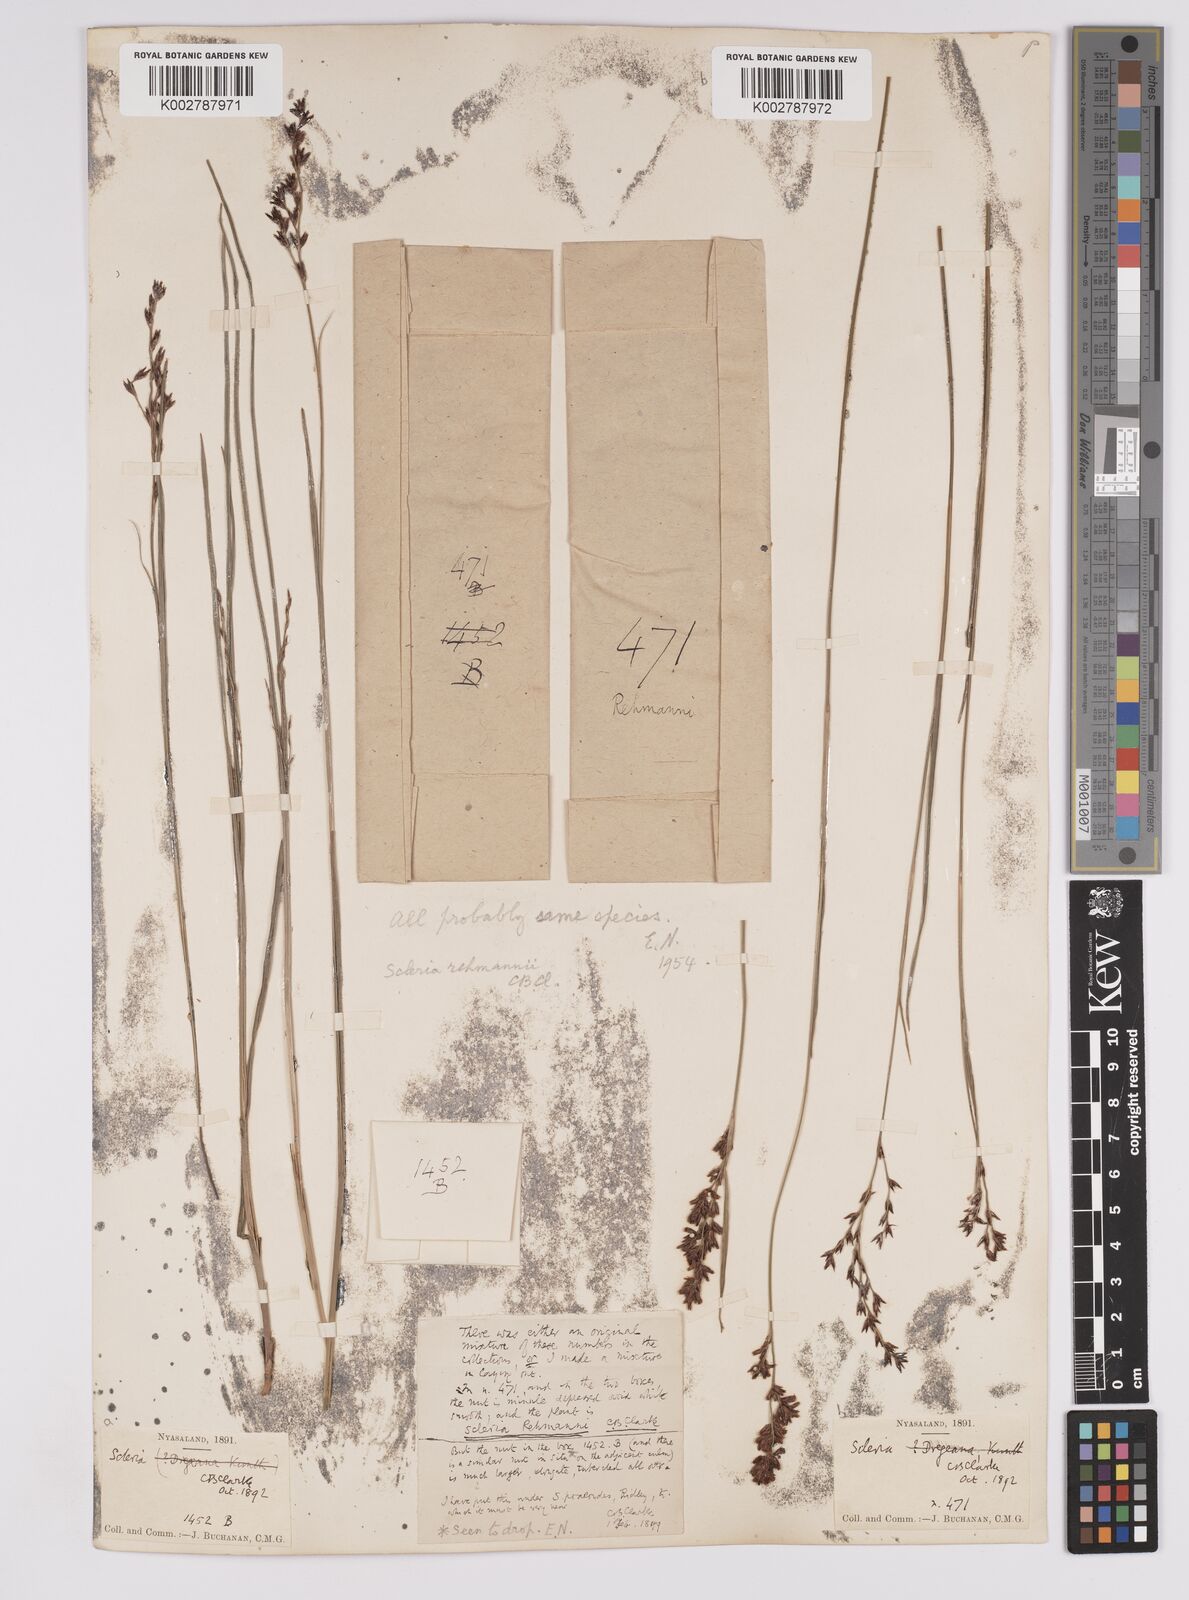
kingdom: Plantae
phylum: Tracheophyta
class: Liliopsida
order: Poales
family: Cyperaceae
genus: Scleria
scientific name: Scleria rehmannii
